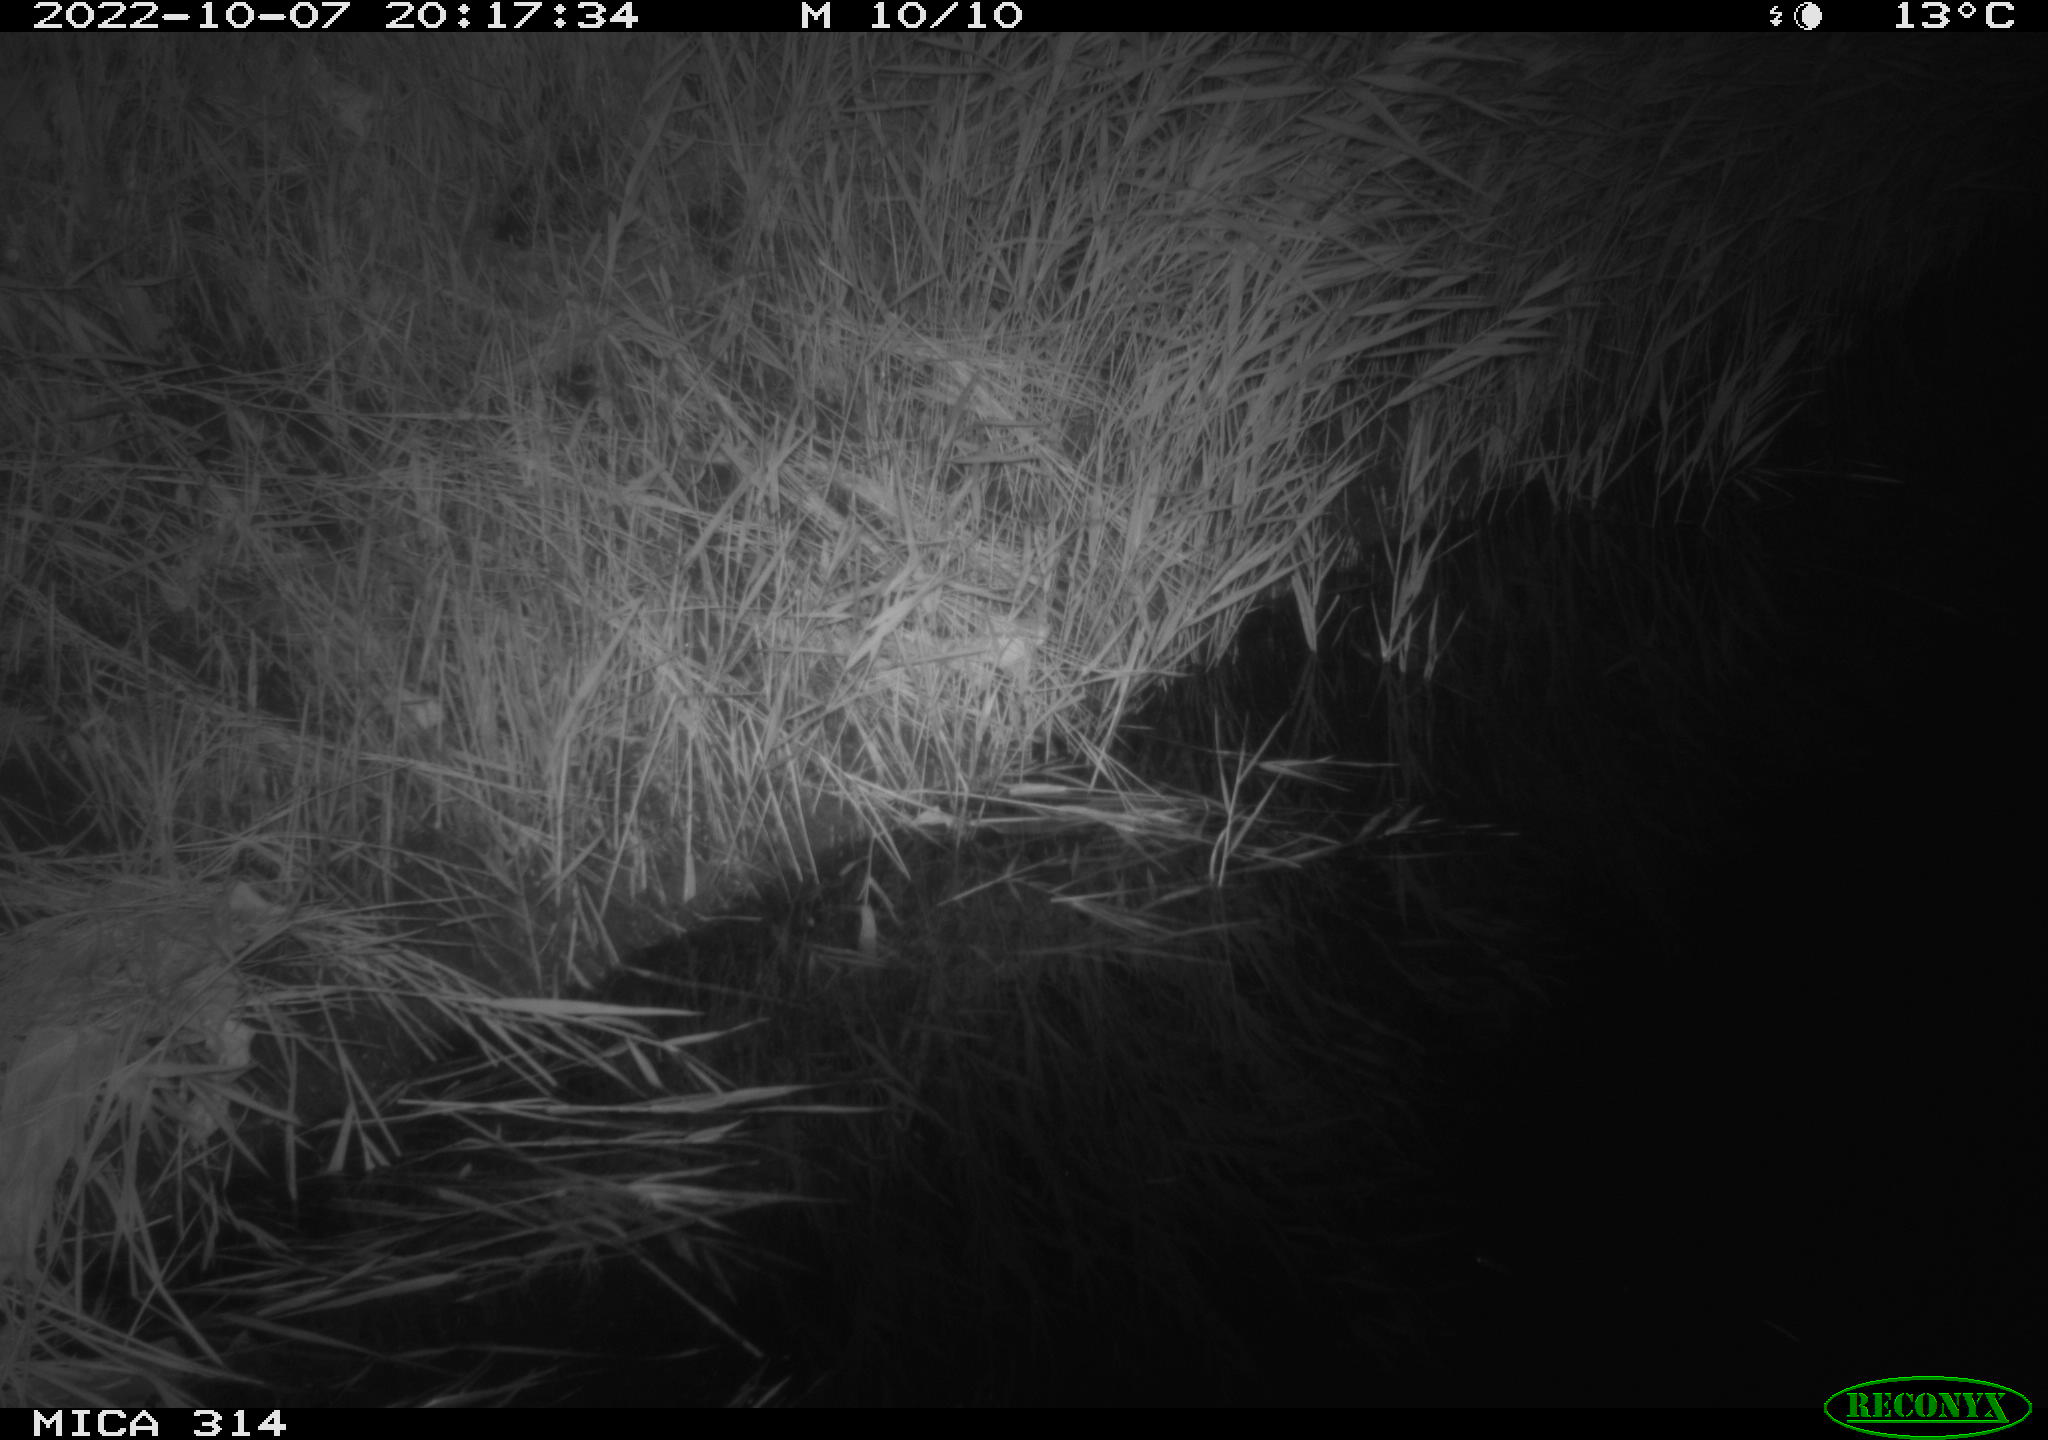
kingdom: Animalia
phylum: Chordata
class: Mammalia
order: Rodentia
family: Muridae
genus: Rattus
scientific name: Rattus norvegicus
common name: Brown rat
